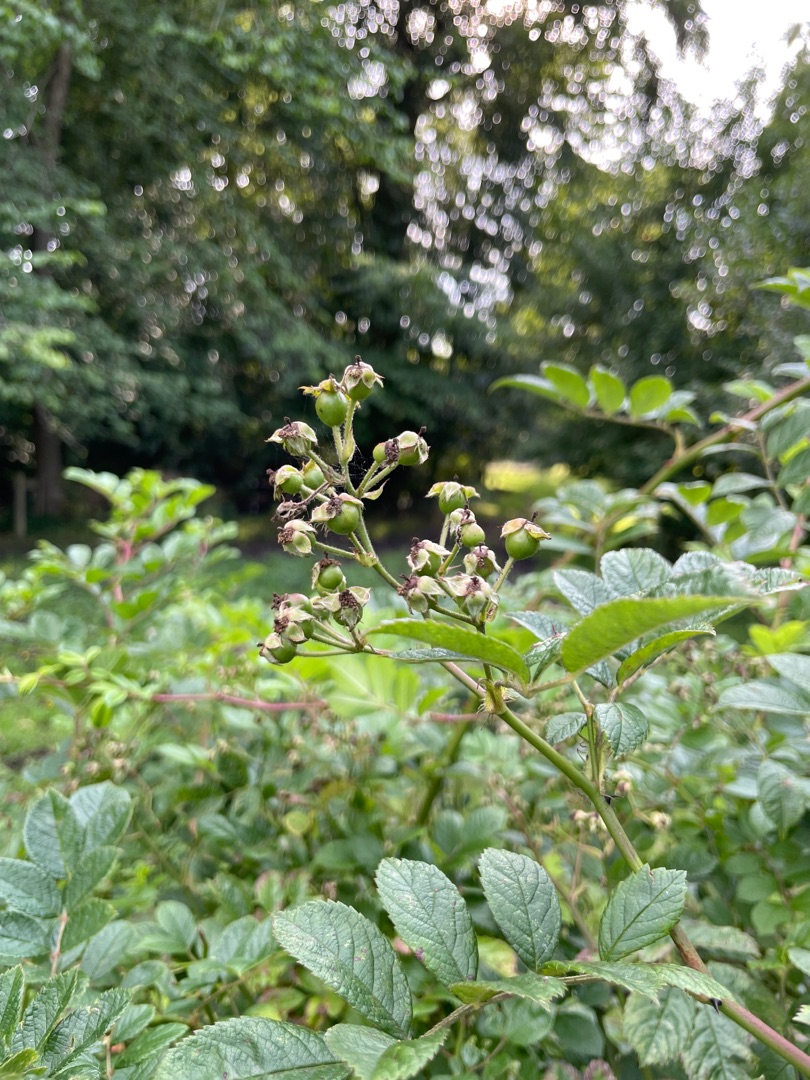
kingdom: Plantae
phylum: Tracheophyta
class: Magnoliopsida
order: Rosales
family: Rosaceae
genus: Rosa
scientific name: Rosa multiflora
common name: Mangeblomstret rose
